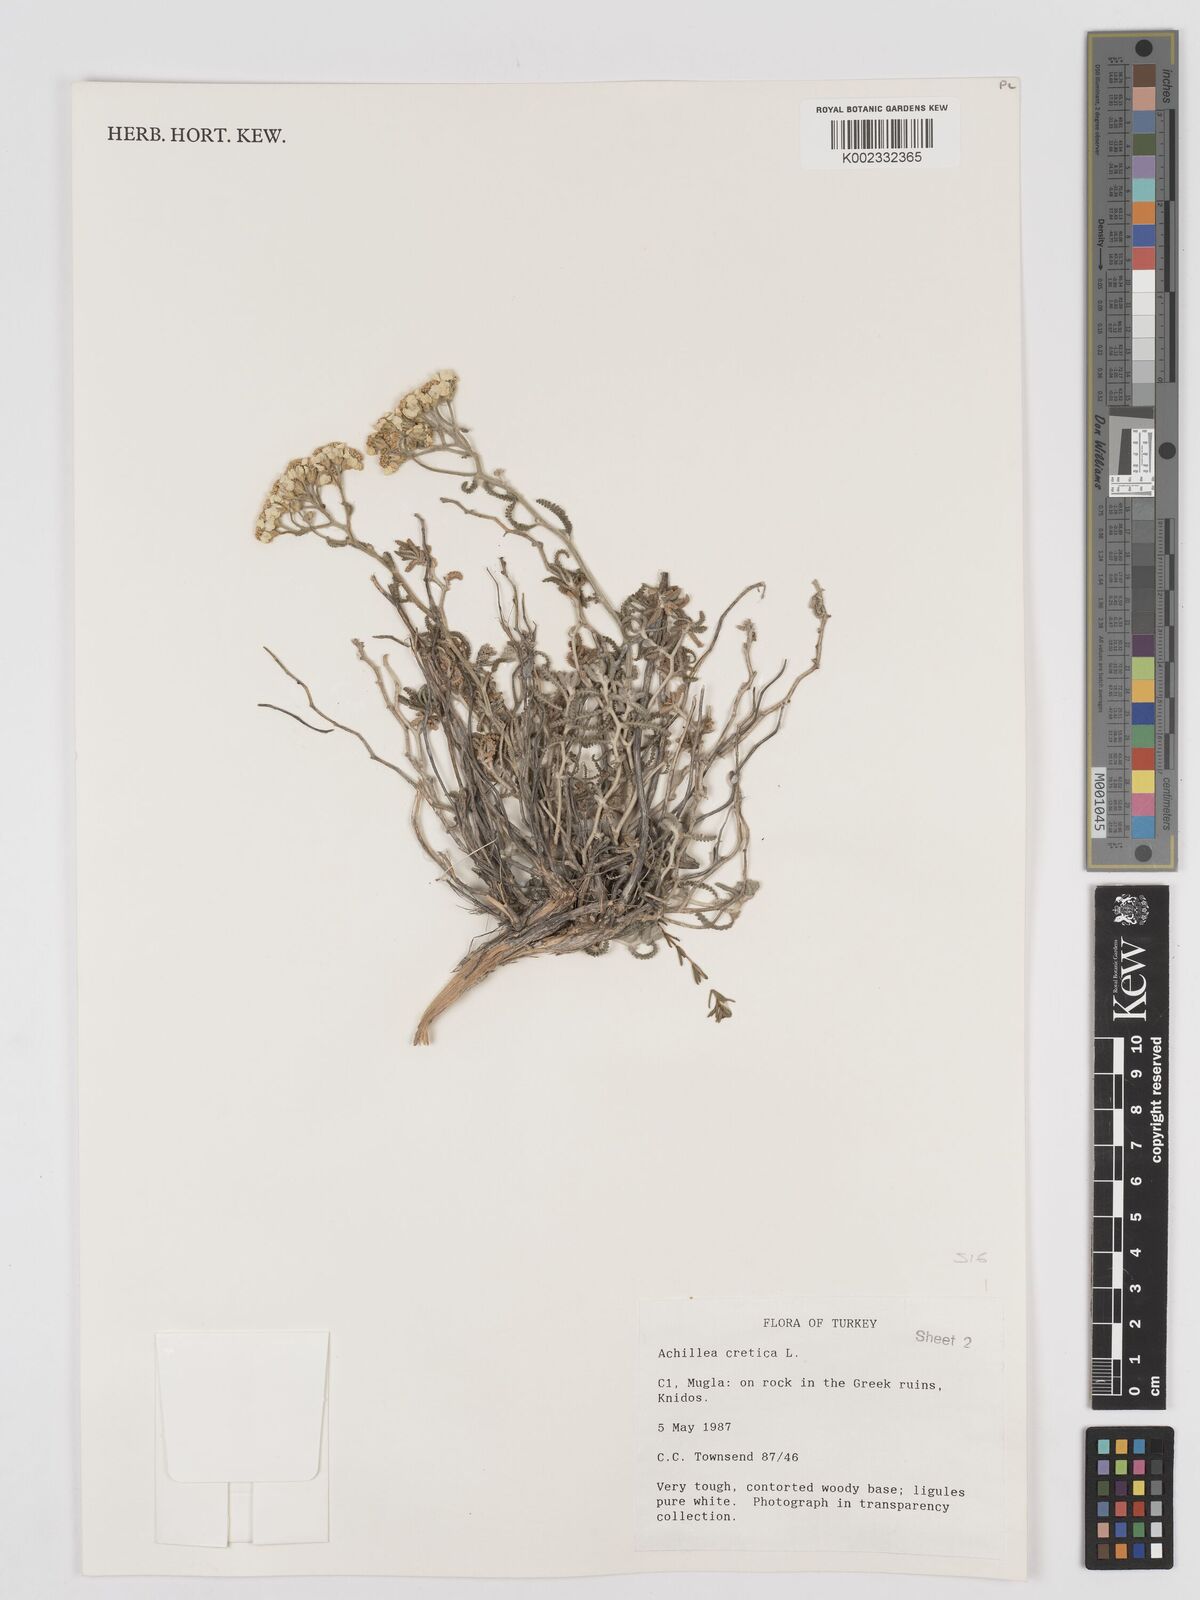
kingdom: Plantae
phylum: Tracheophyta
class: Magnoliopsida
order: Asterales
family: Asteraceae
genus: Achillea
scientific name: Achillea cretica
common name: Chamomile-leaved lavender-cotton
